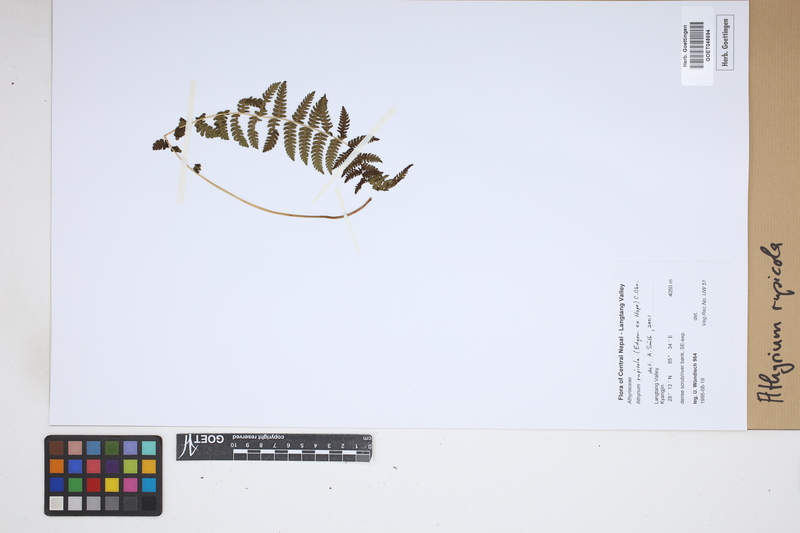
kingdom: Plantae
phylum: Tracheophyta
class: Polypodiopsida
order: Polypodiales
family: Athyriaceae
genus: Athyrium
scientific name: Athyrium rupicola
